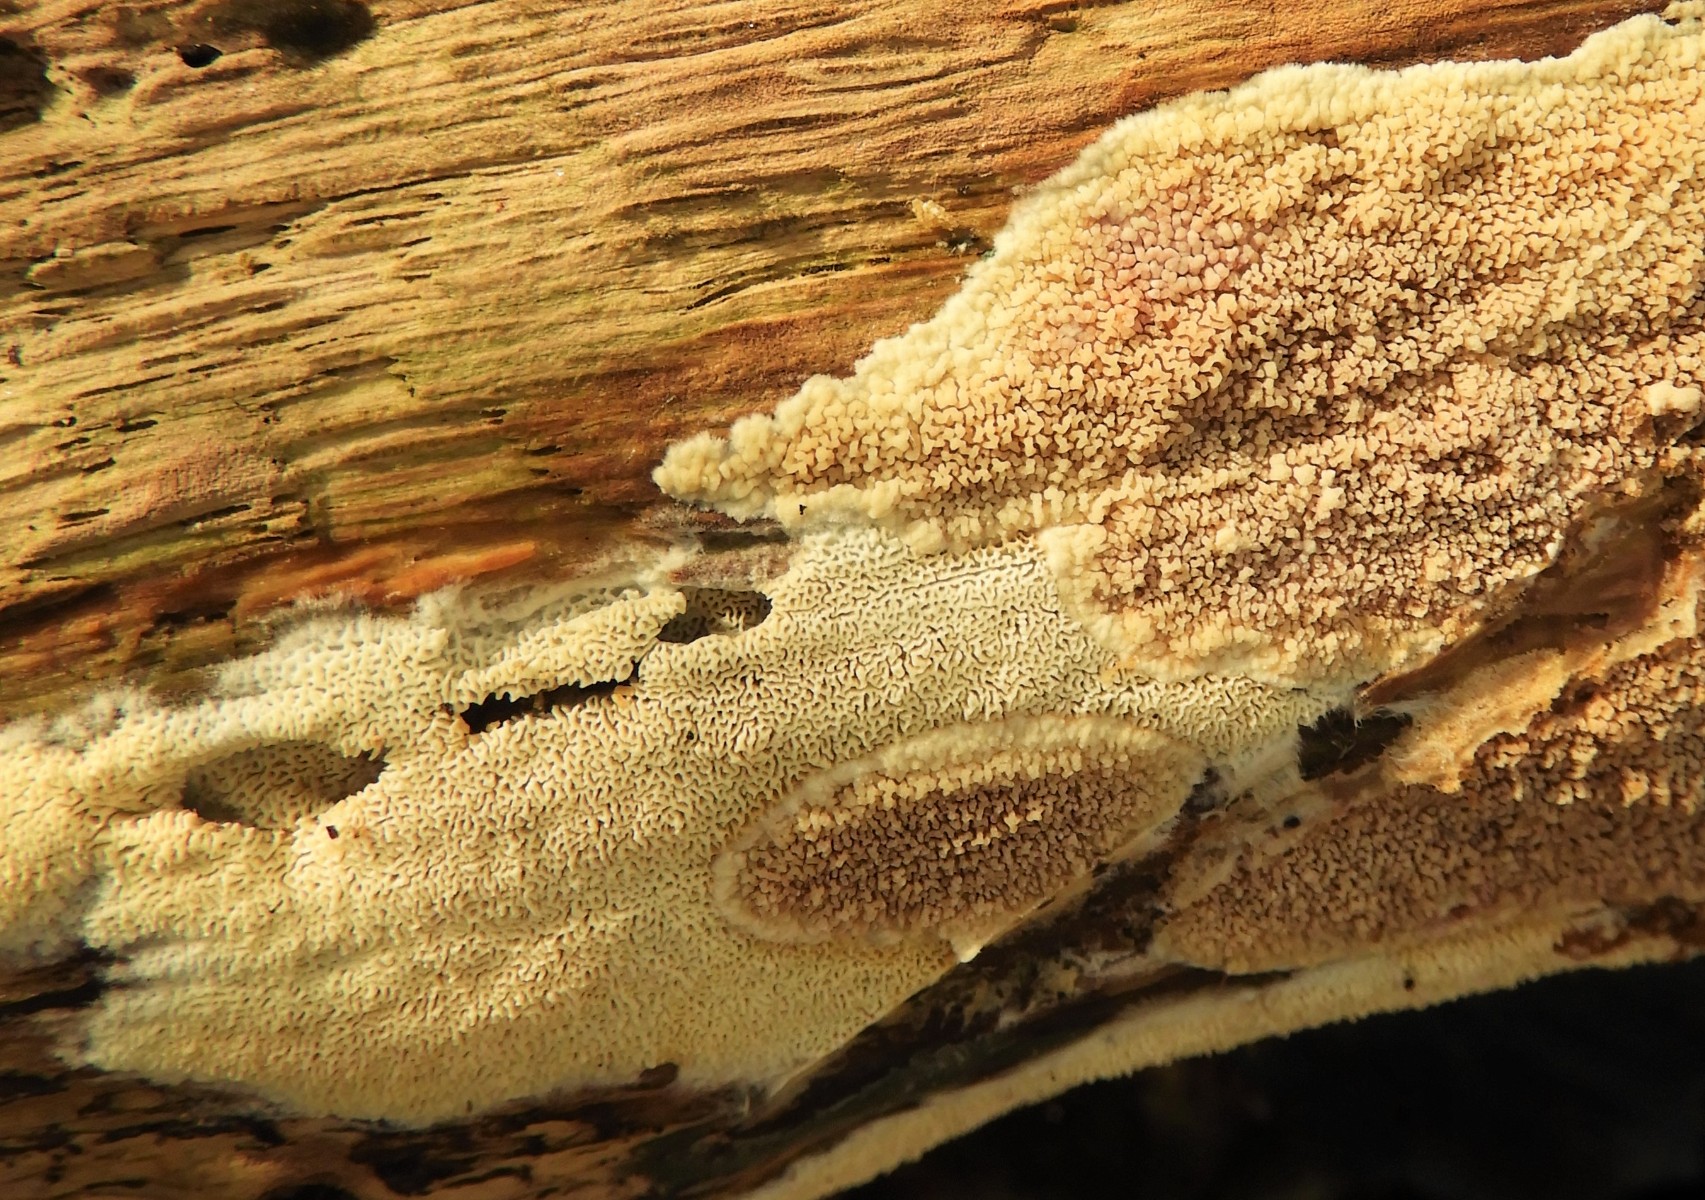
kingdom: Fungi
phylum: Basidiomycota
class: Agaricomycetes
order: Polyporales
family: Meruliaceae
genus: Phlebia
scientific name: Phlebia rufa
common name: ege-åresvamp
